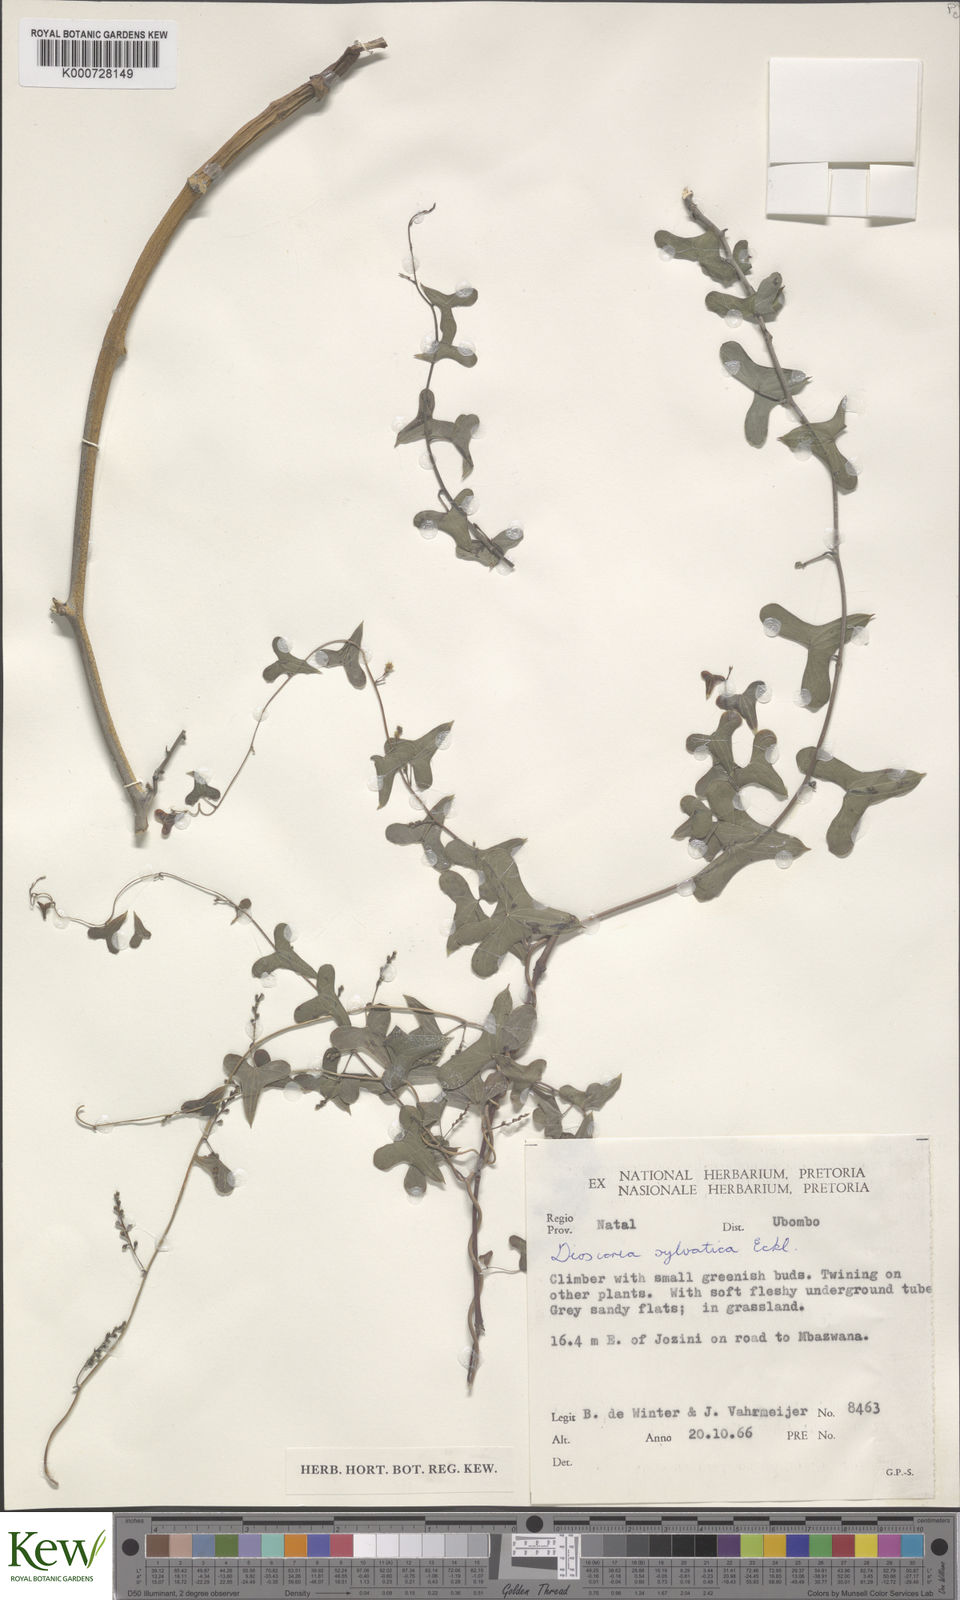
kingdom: Plantae
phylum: Tracheophyta
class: Liliopsida
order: Dioscoreales
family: Dioscoreaceae
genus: Dioscorea
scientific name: Dioscorea sylvatica
